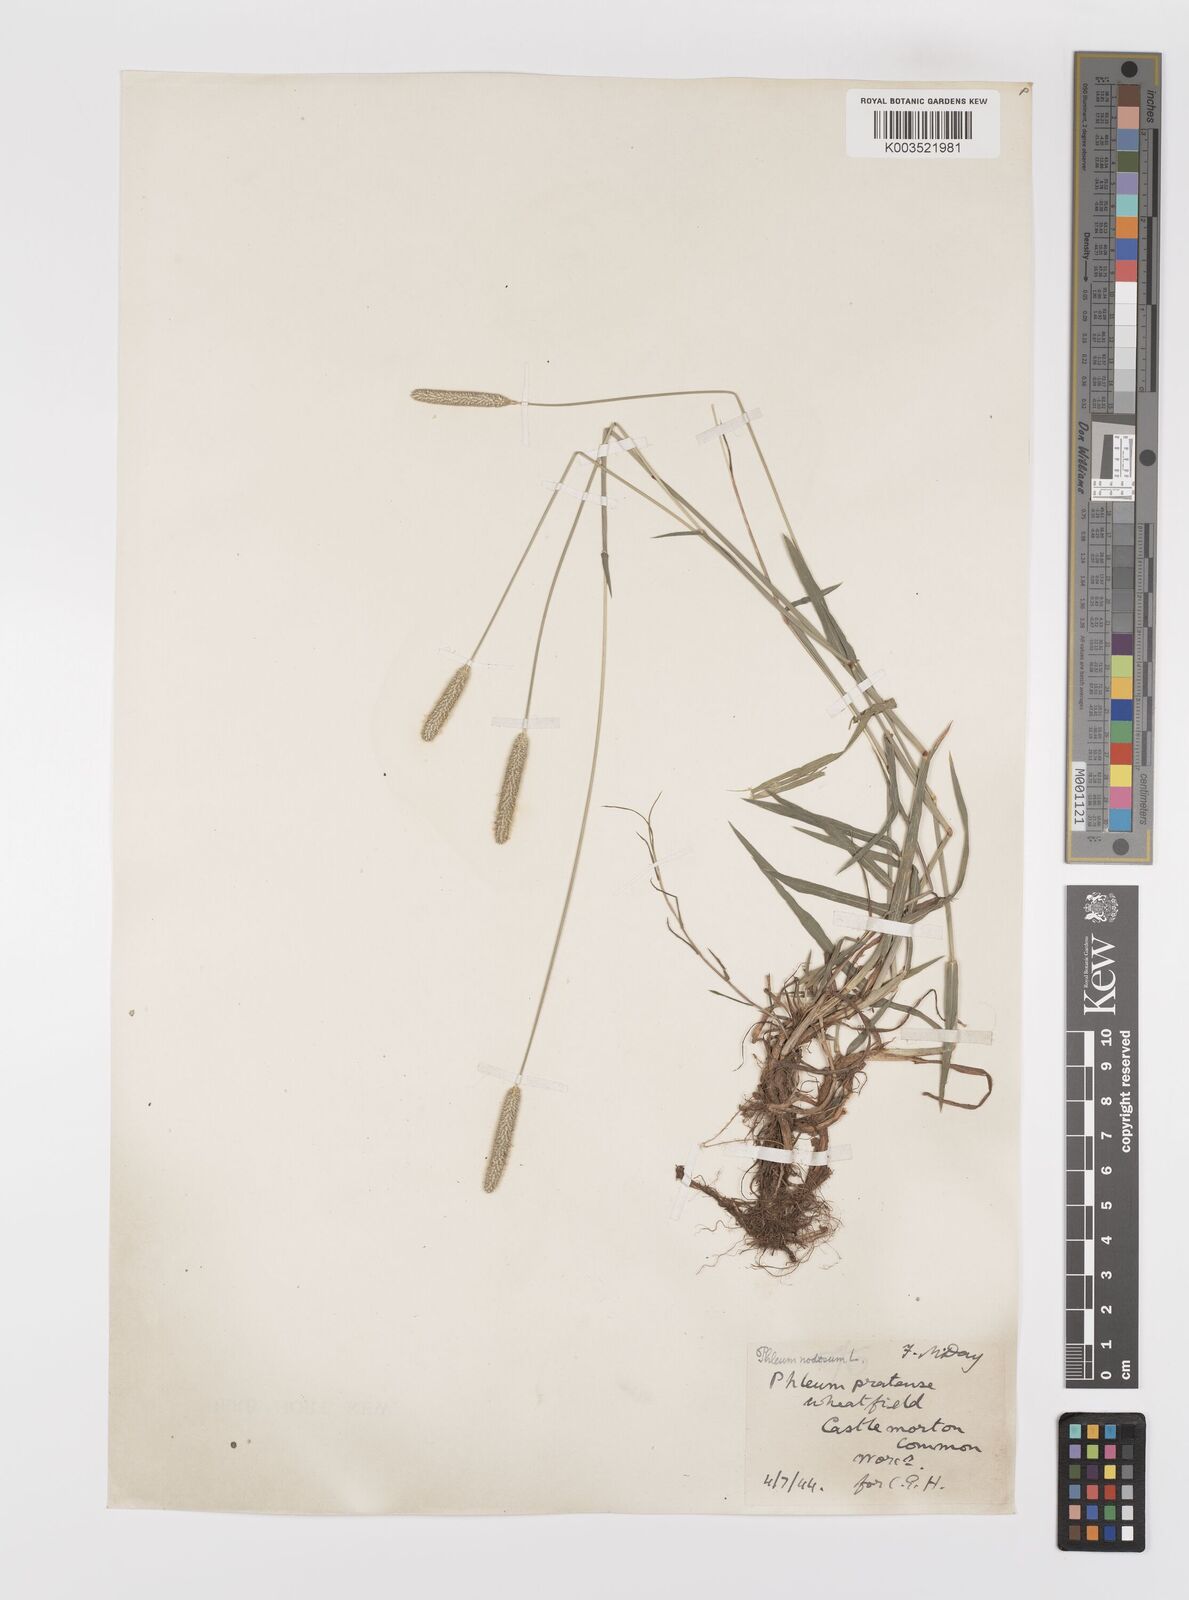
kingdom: Plantae
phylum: Tracheophyta
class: Liliopsida
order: Poales
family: Poaceae
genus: Phleum
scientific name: Phleum bertolonii
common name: Smaller cat's-tail
